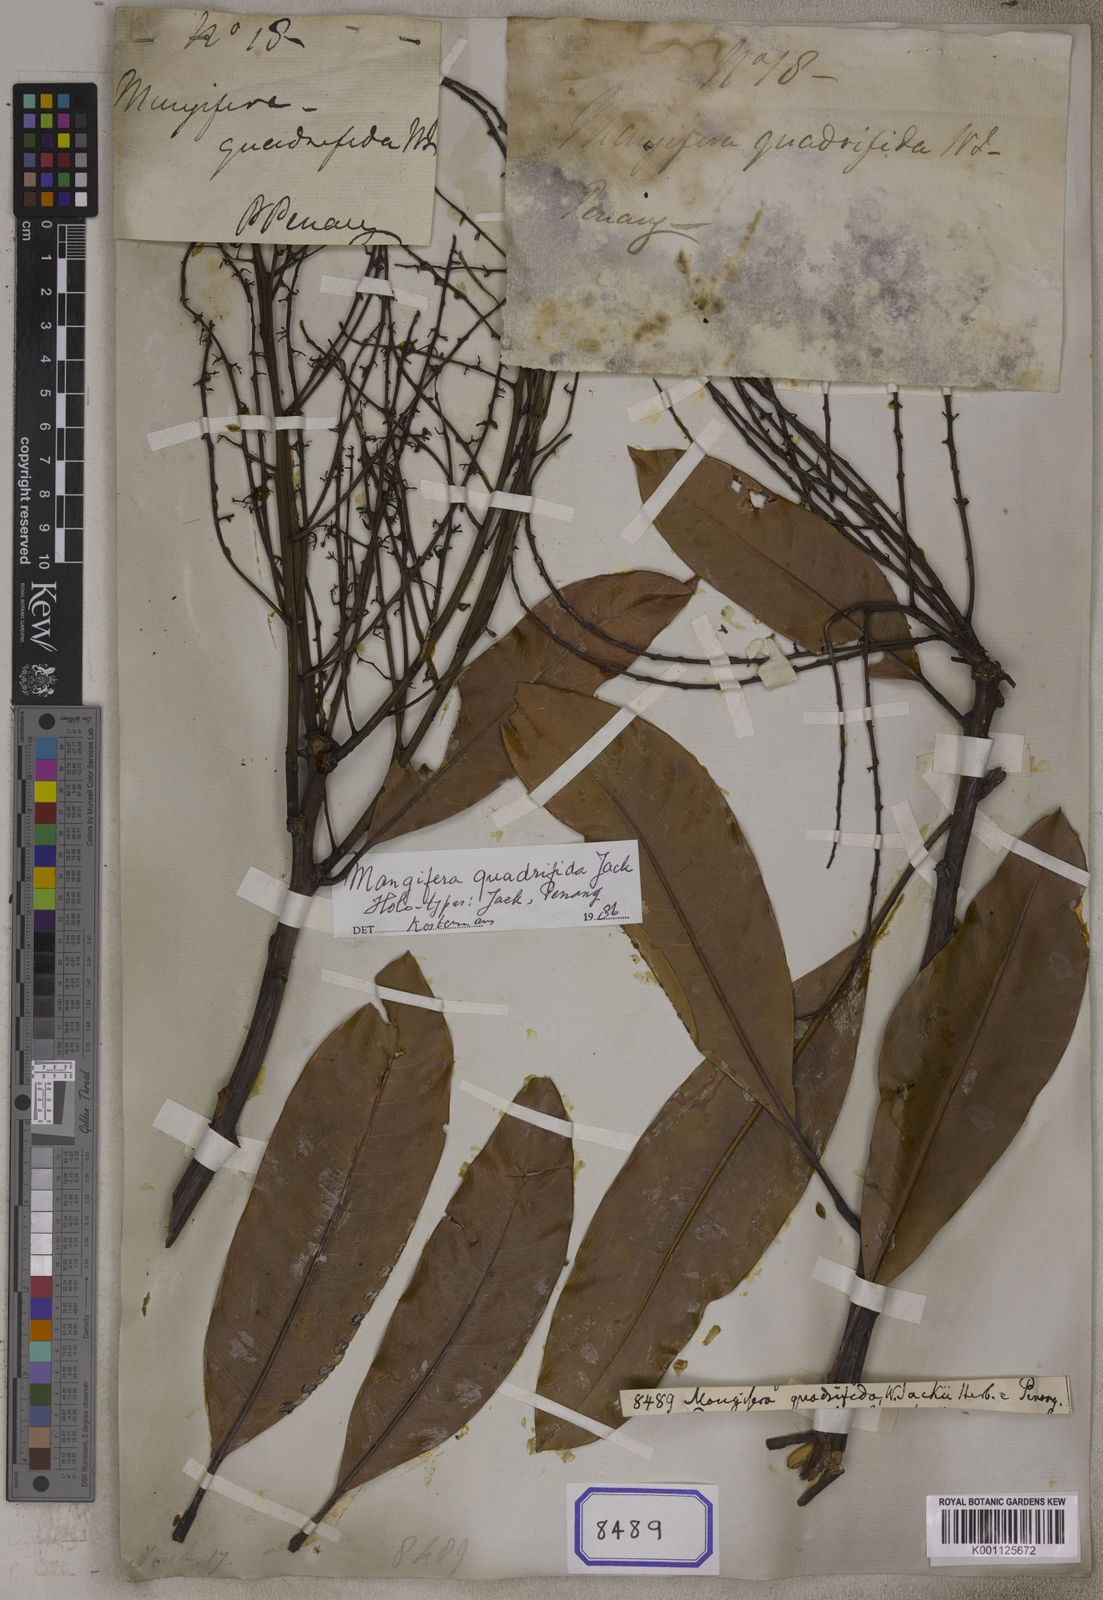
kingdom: Plantae
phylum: Tracheophyta
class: Magnoliopsida
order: Sapindales
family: Anacardiaceae
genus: Mangifera
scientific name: Mangifera quadrifida
